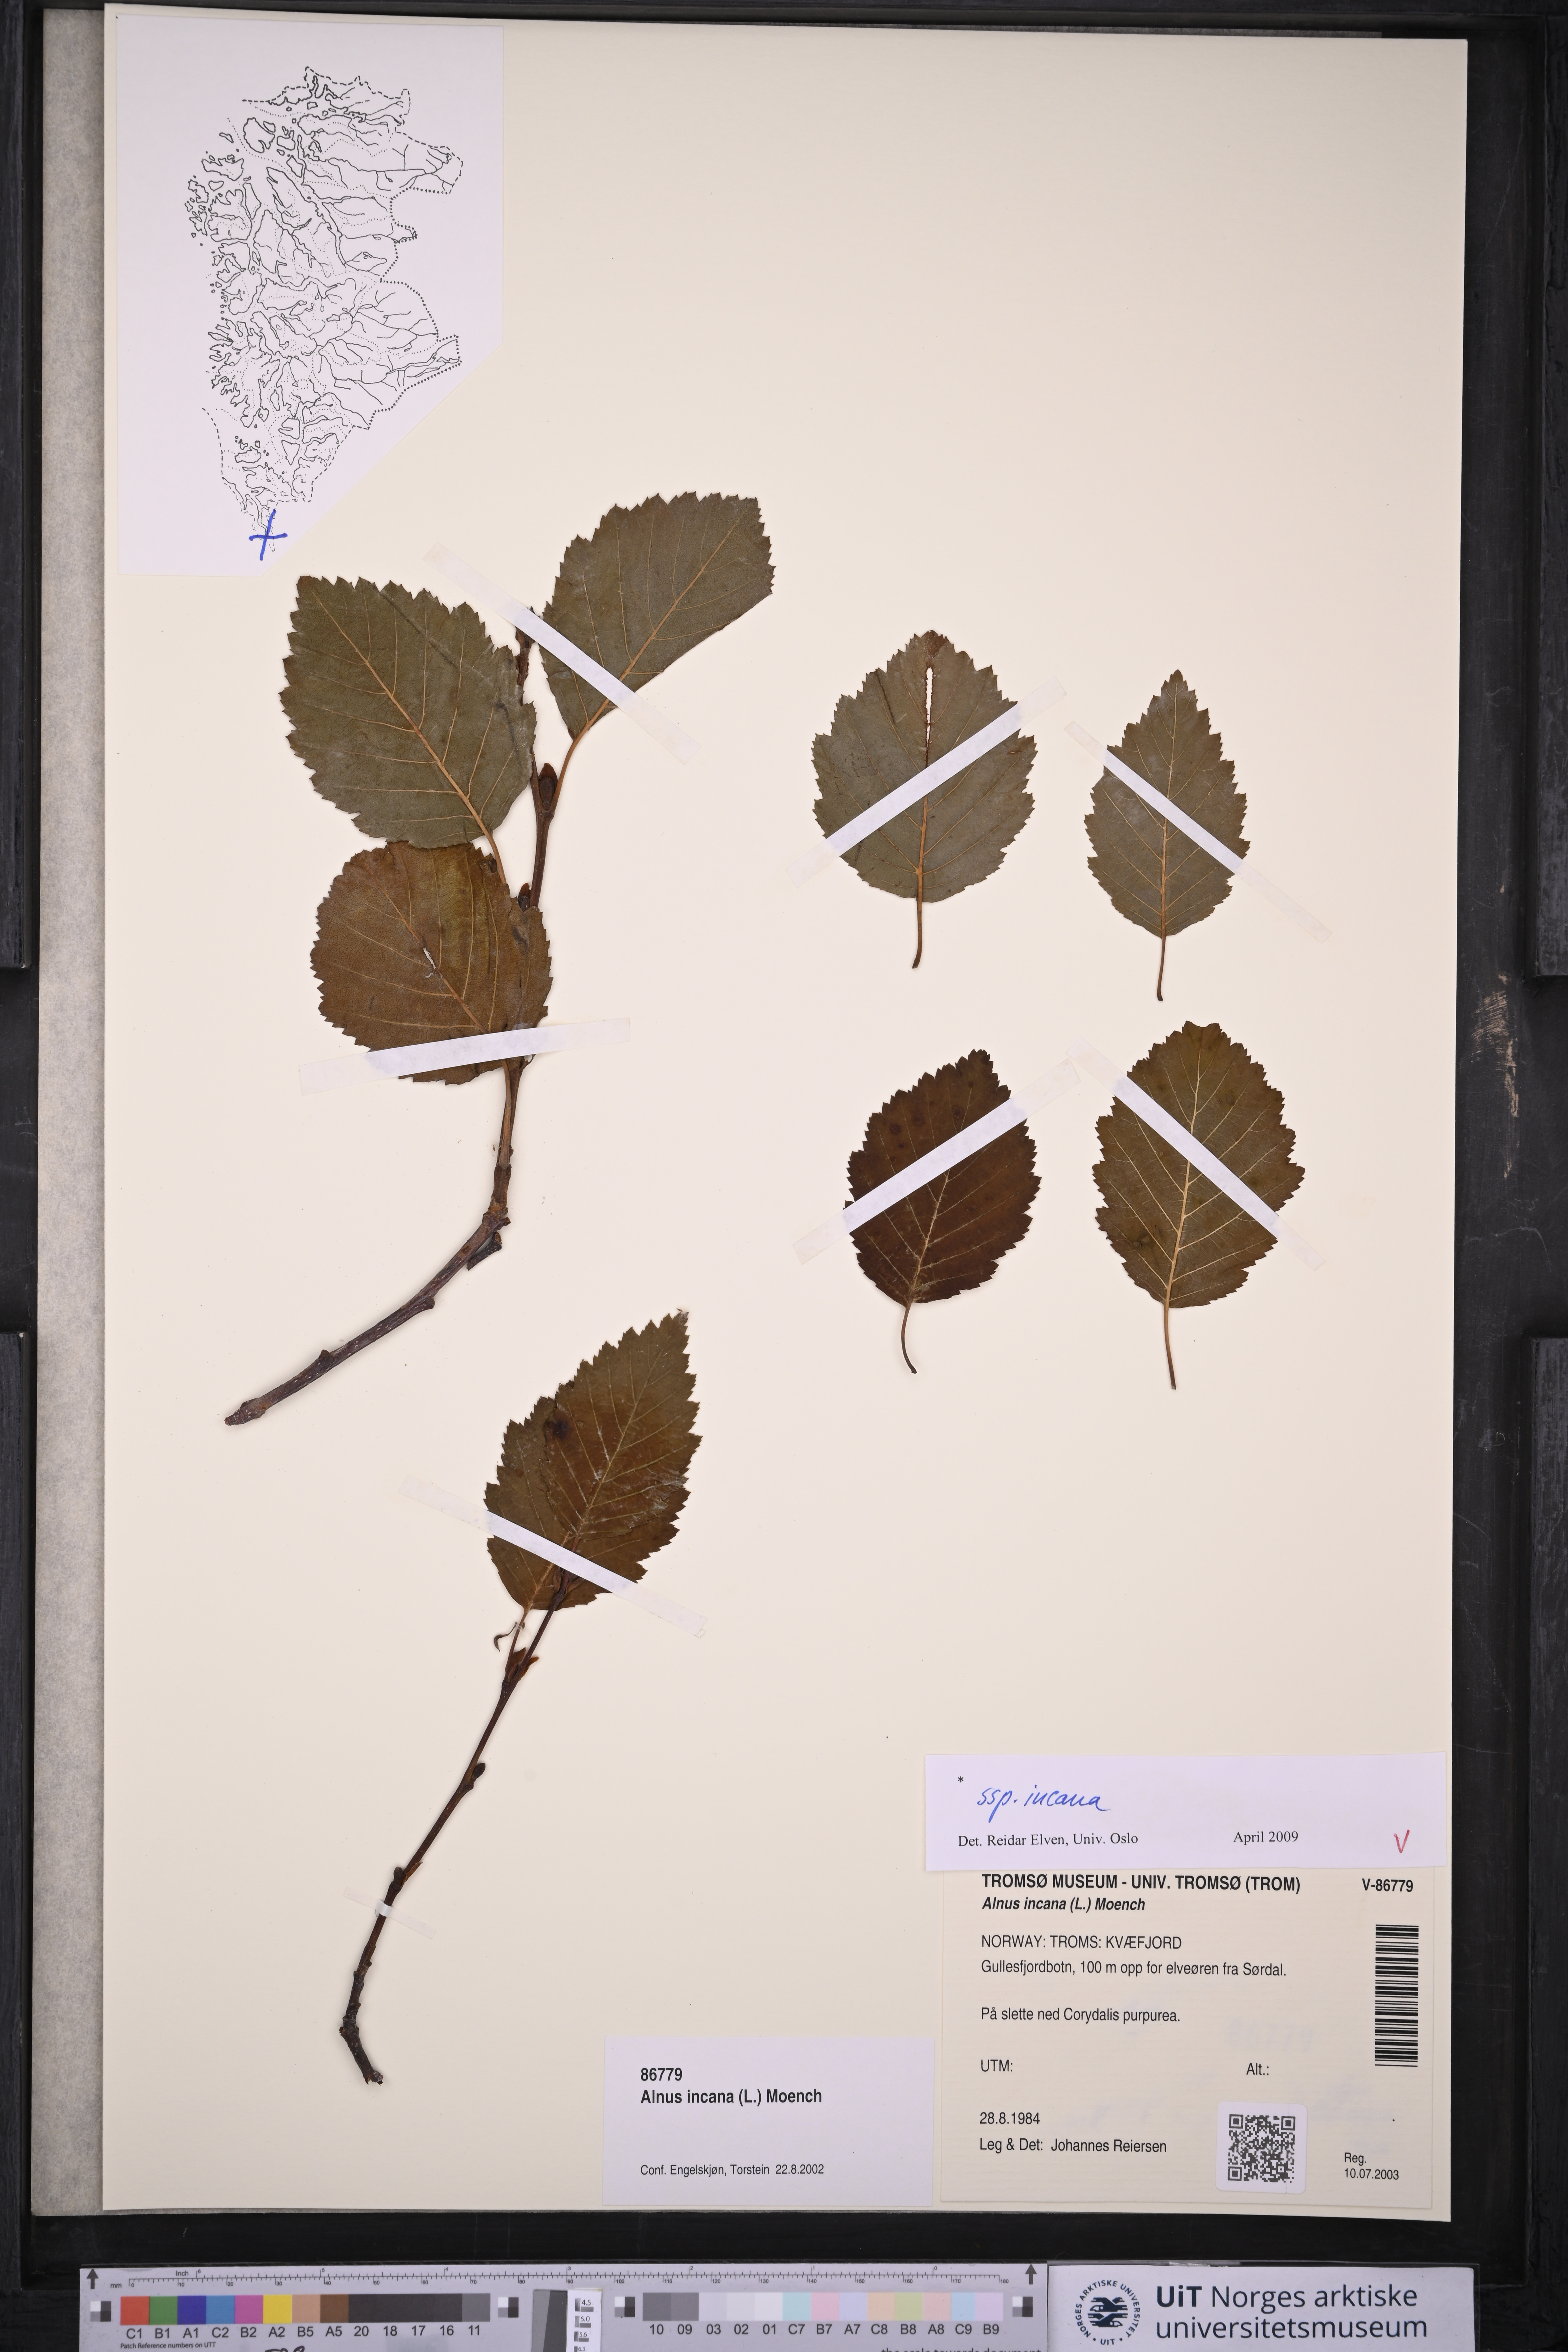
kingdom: Plantae
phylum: Tracheophyta
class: Magnoliopsida
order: Fagales
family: Betulaceae
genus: Alnus
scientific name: Alnus incana
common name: Grey alder
